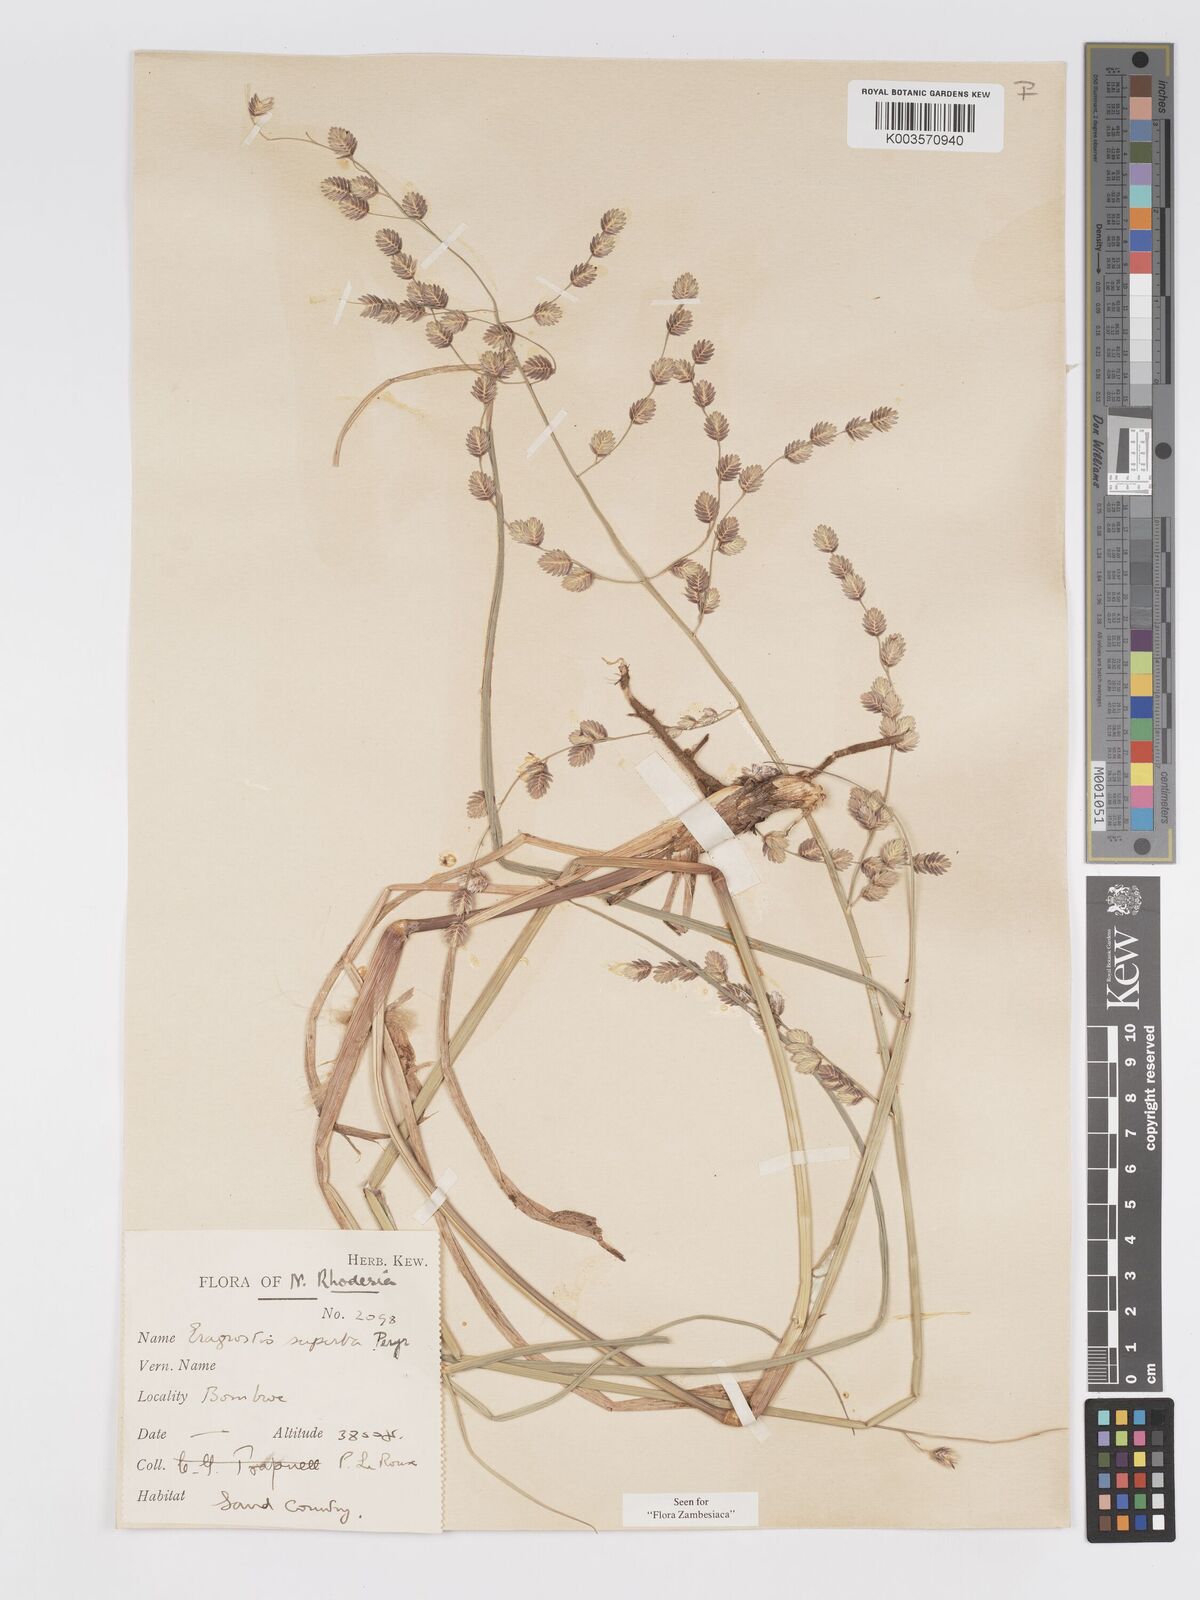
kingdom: Plantae
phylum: Tracheophyta
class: Liliopsida
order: Poales
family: Poaceae
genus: Eragrostis
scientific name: Eragrostis superba
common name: Wilman lovegrass
